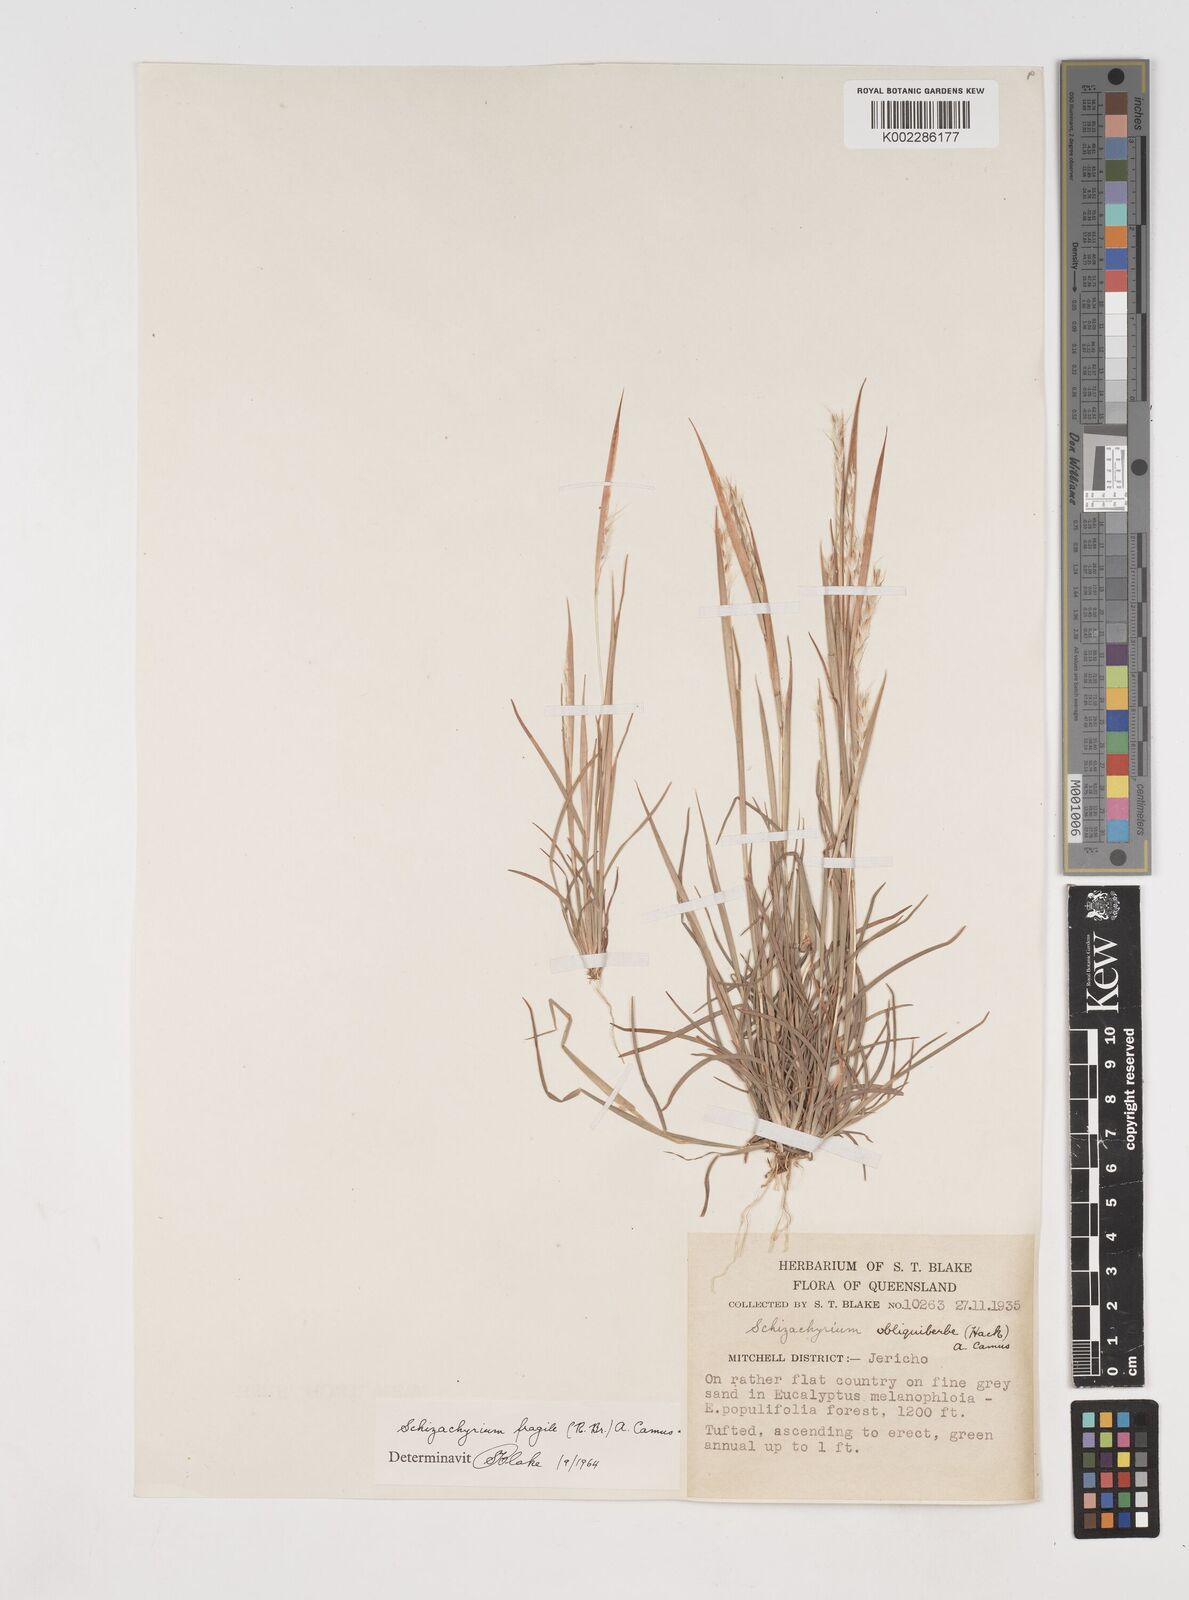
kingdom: Plantae
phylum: Tracheophyta
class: Liliopsida
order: Poales
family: Poaceae
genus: Schizachyrium
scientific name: Schizachyrium fragile
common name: Red spathe grass
